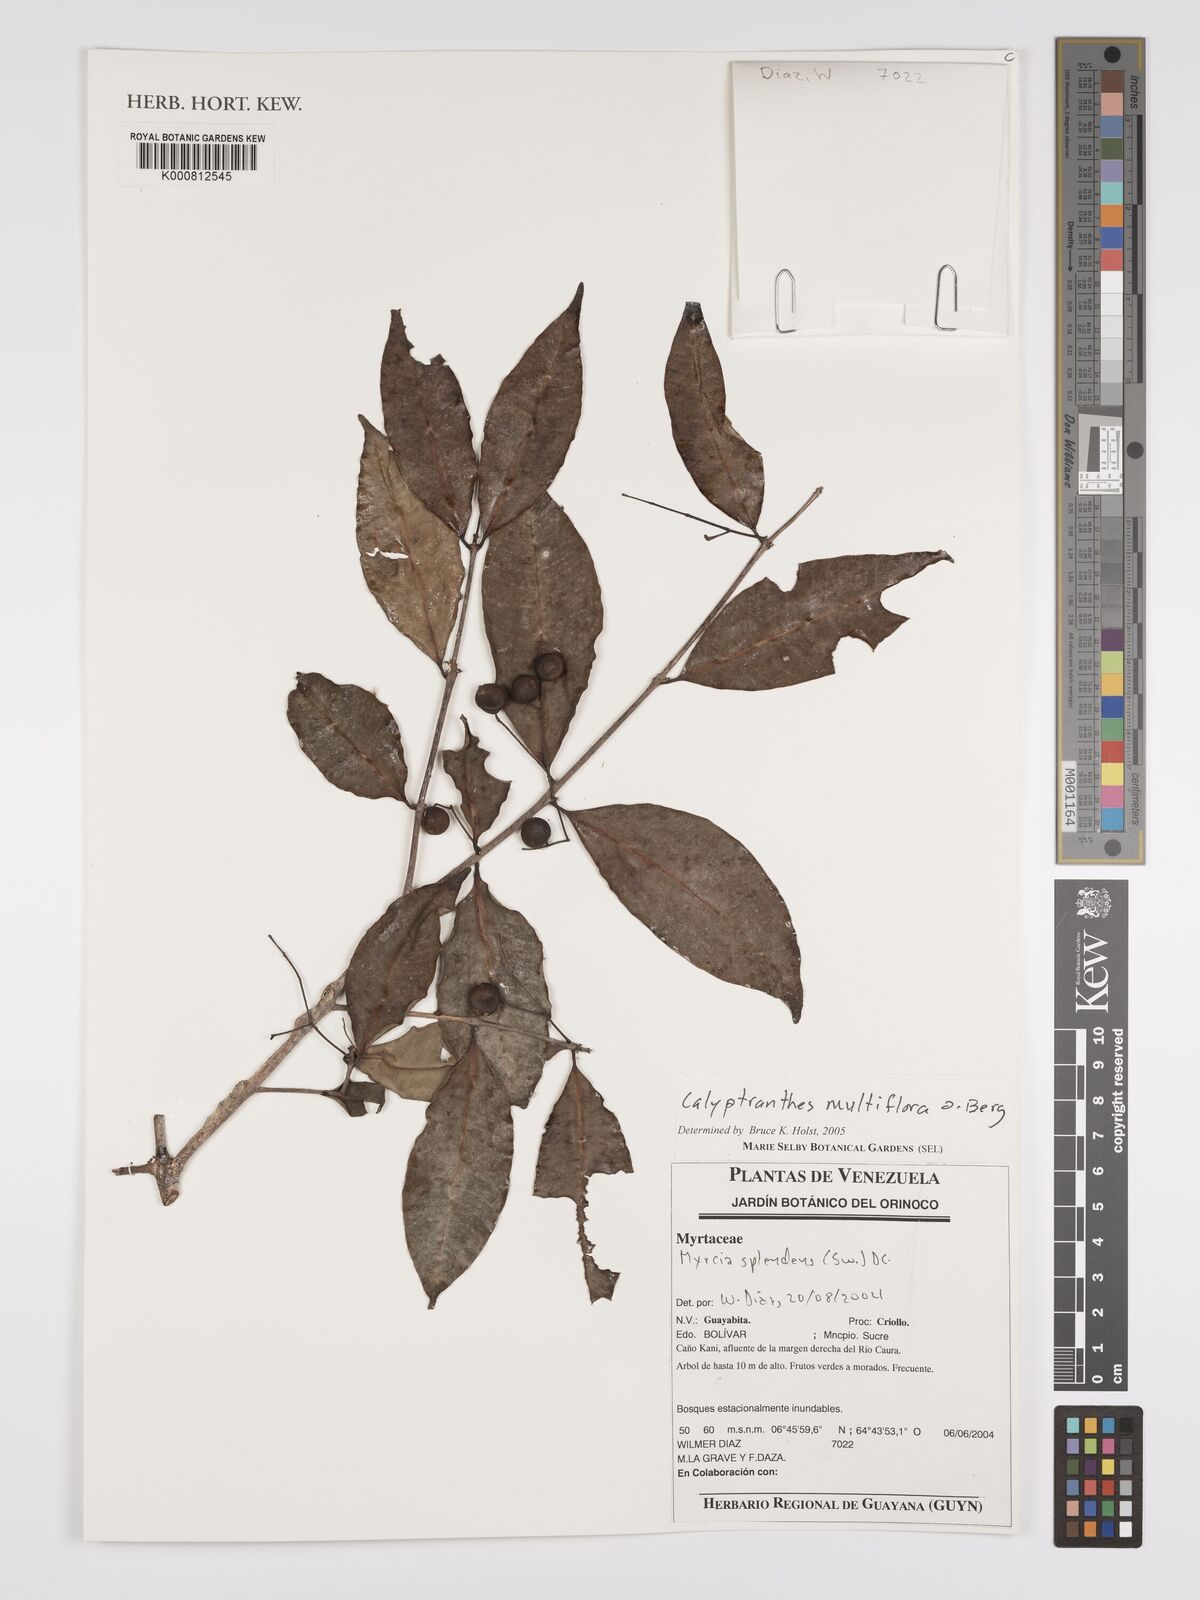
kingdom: Plantae
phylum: Tracheophyta
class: Magnoliopsida
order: Myrtales
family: Myrtaceae
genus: Myrcia
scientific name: Myrcia aulomyrcioides
